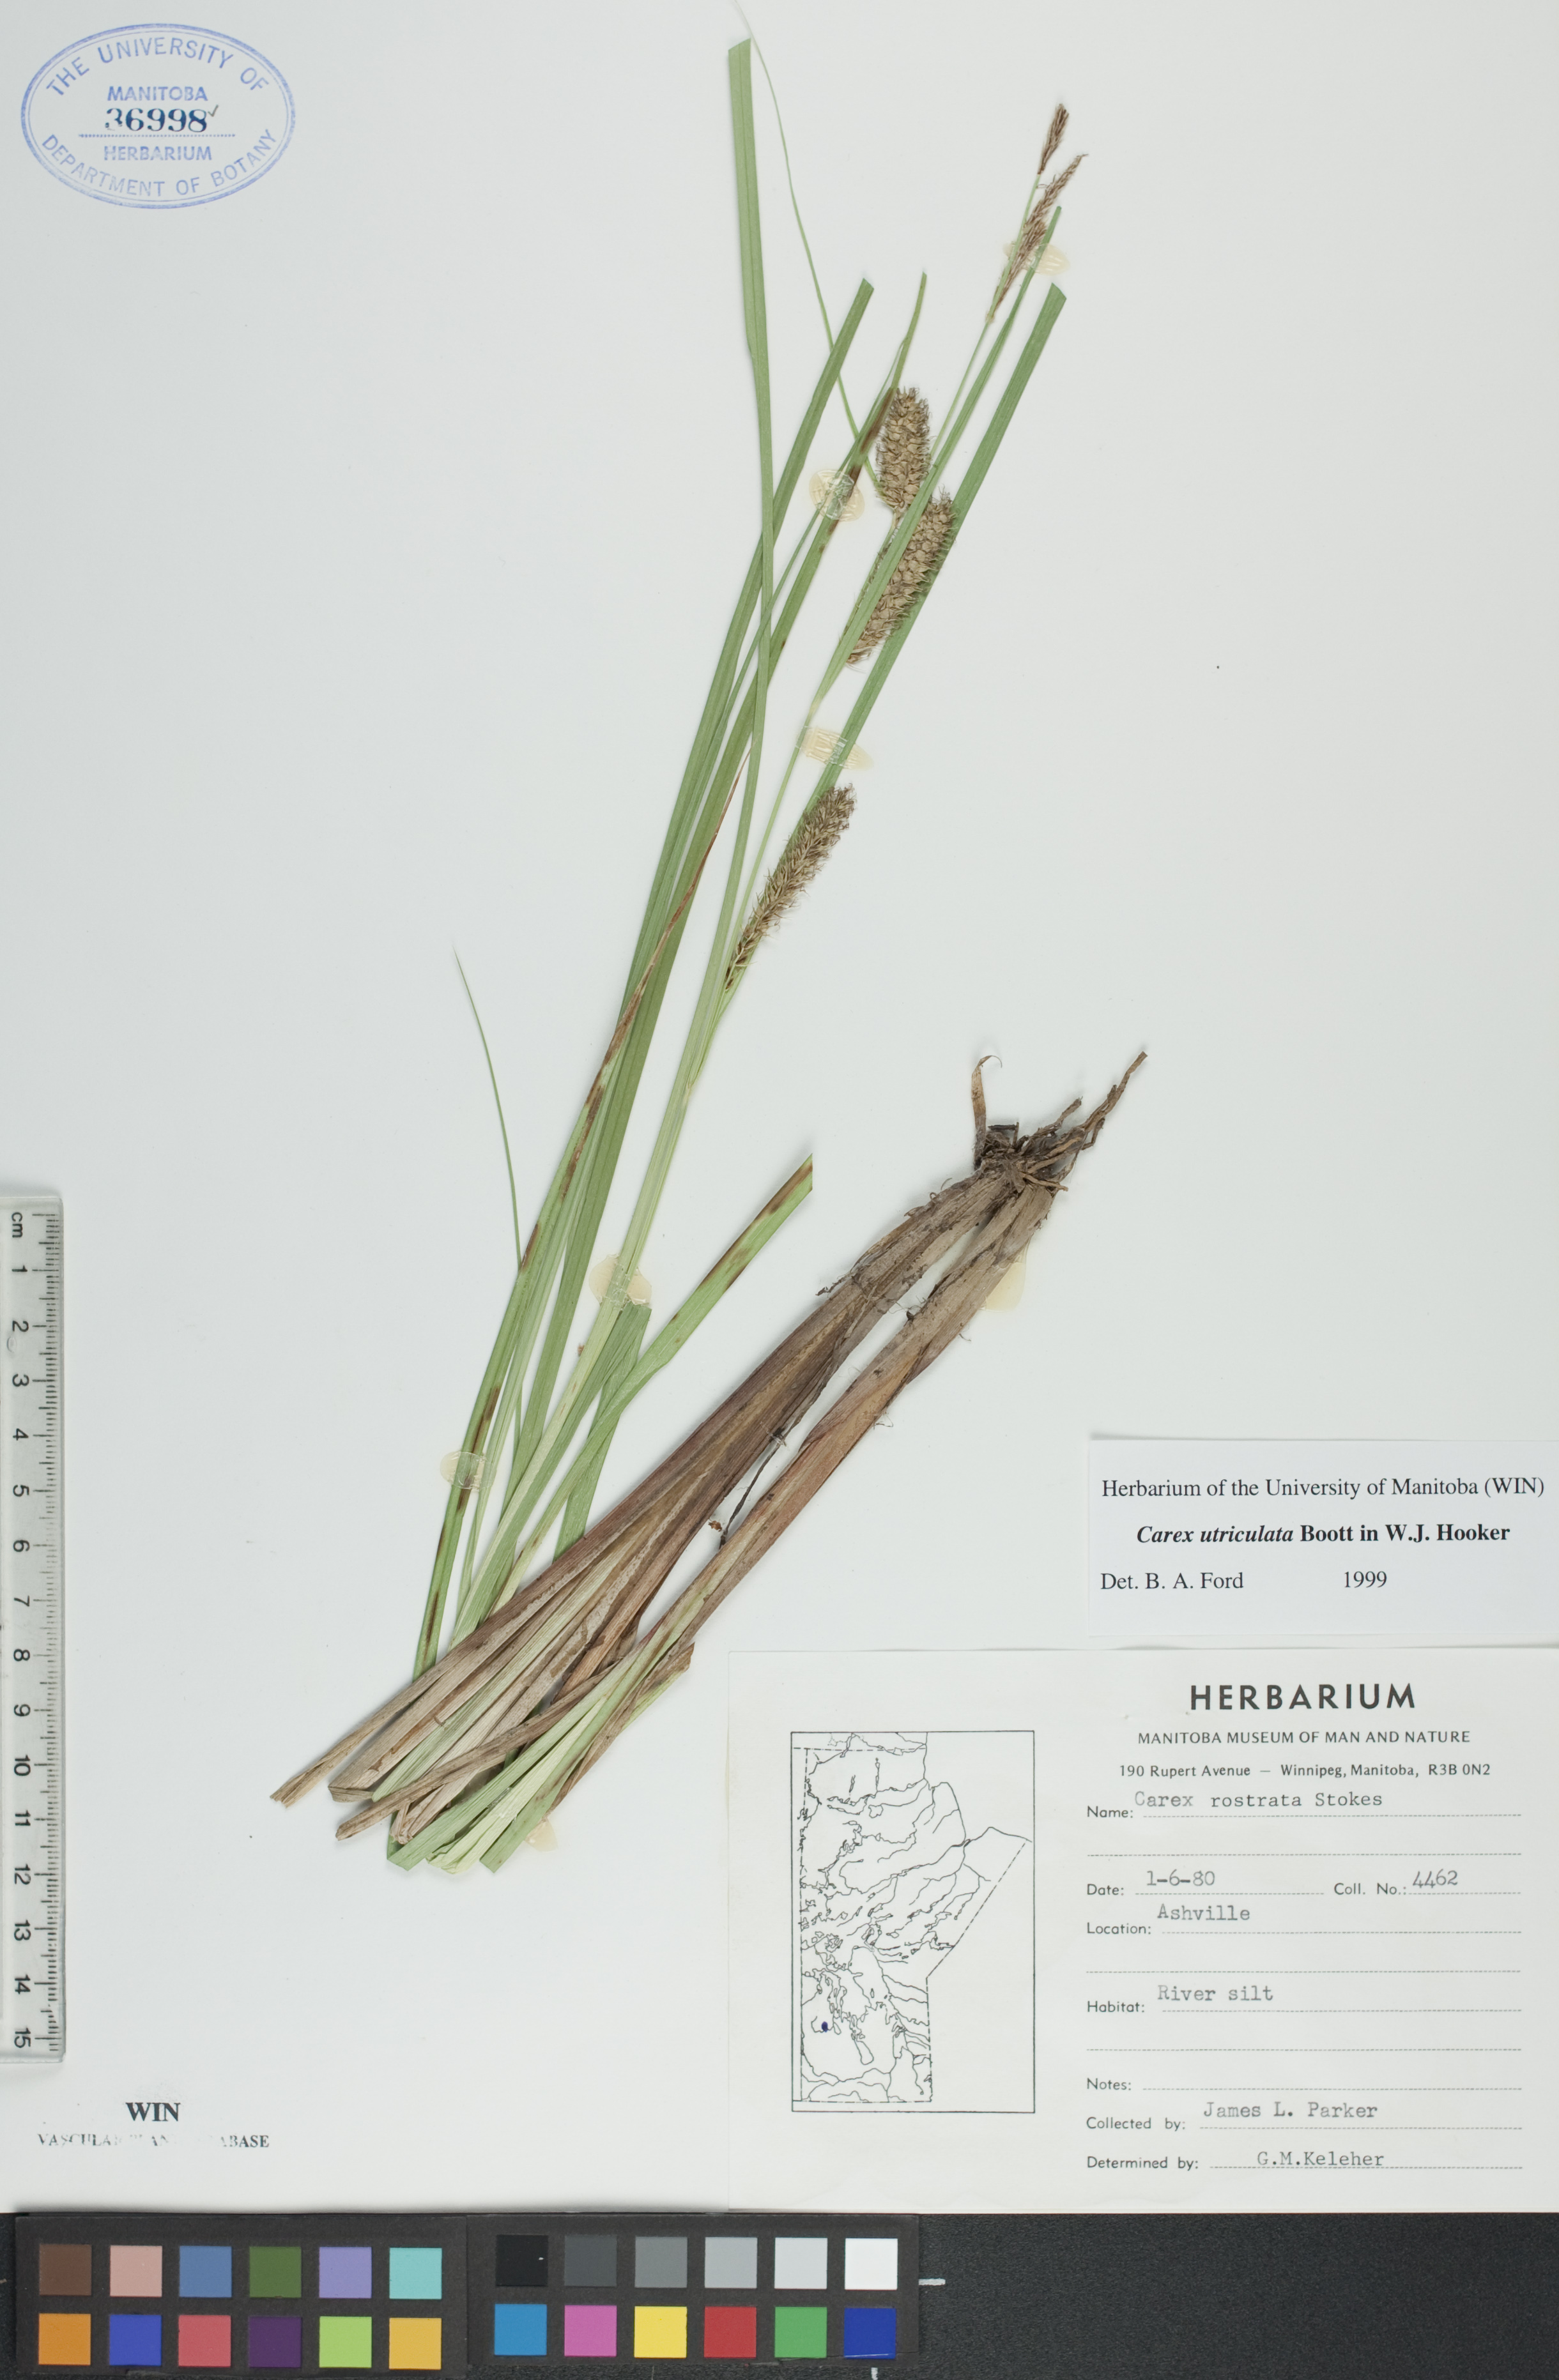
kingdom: Plantae
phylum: Tracheophyta
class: Liliopsida
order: Poales
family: Cyperaceae
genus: Carex
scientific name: Carex utriculata
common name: Beaked sedge
